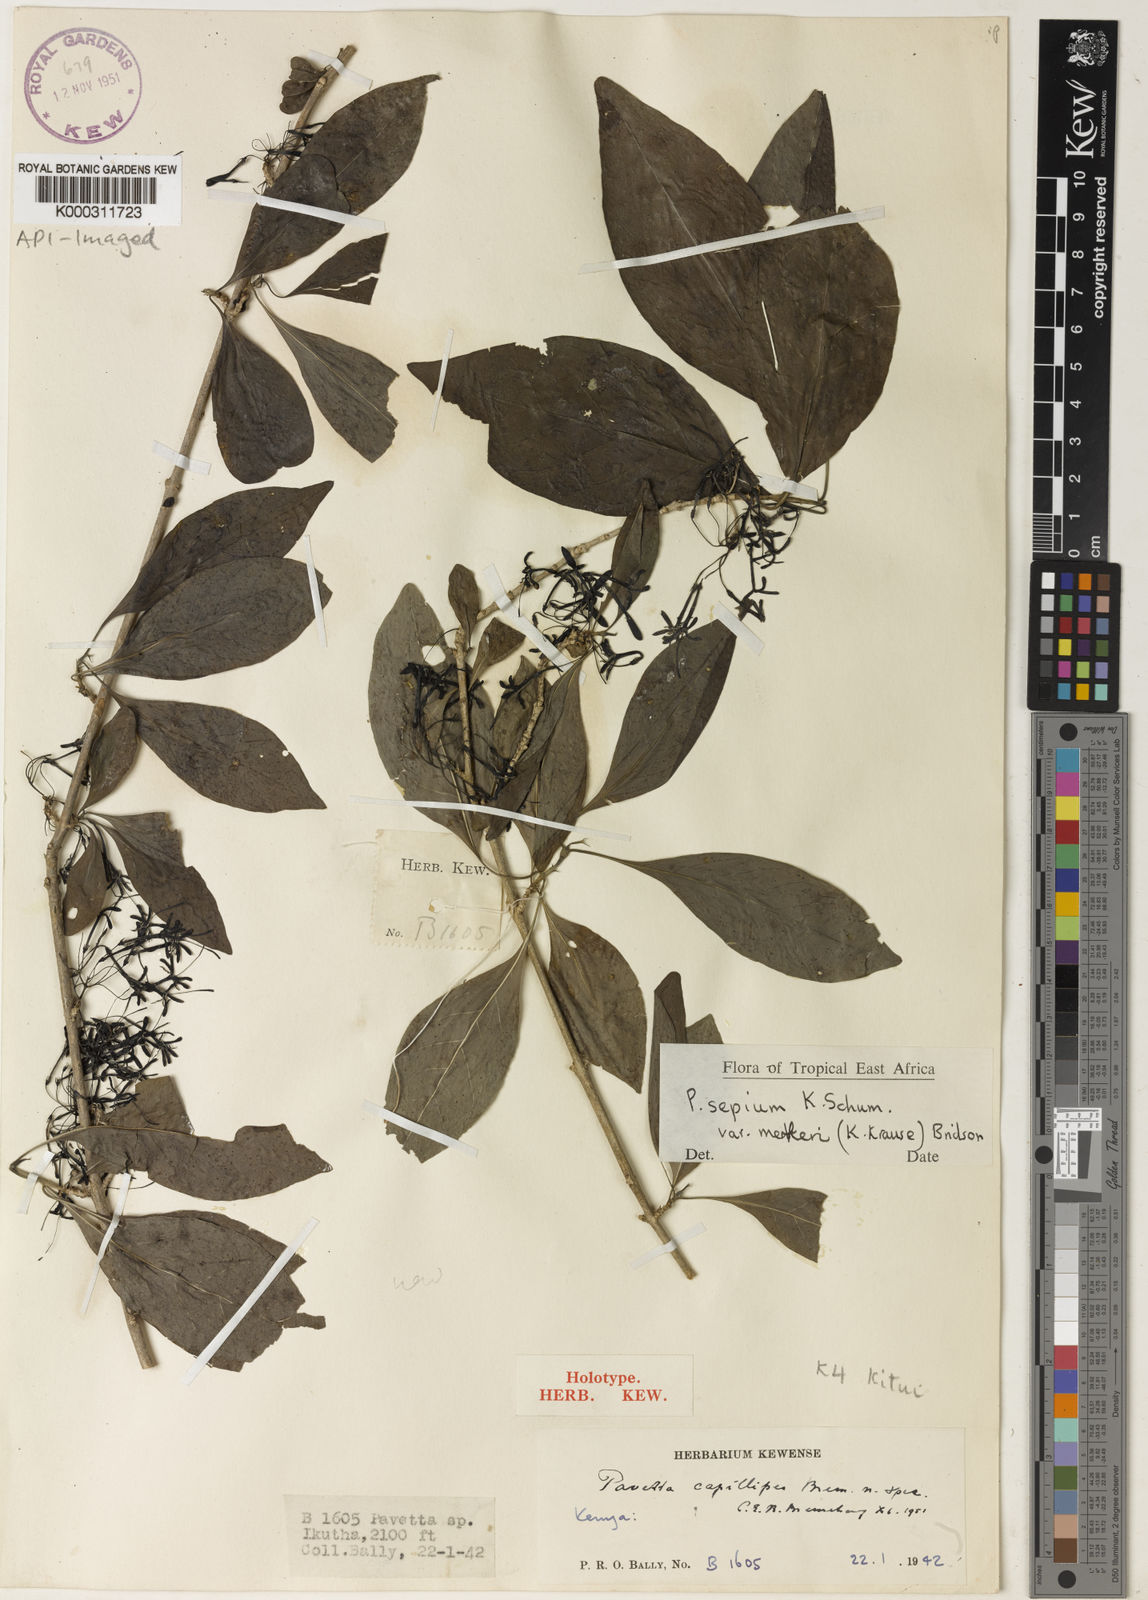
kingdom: Plantae
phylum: Tracheophyta
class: Magnoliopsida
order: Gentianales
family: Rubiaceae
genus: Pavetta
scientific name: Pavetta sepium
